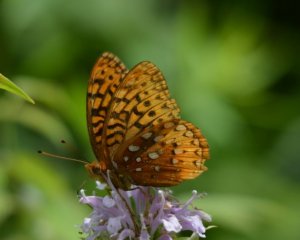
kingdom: Animalia
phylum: Arthropoda
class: Insecta
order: Lepidoptera
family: Nymphalidae
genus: Speyeria
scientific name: Speyeria cybele
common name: Great Spangled Fritillary
